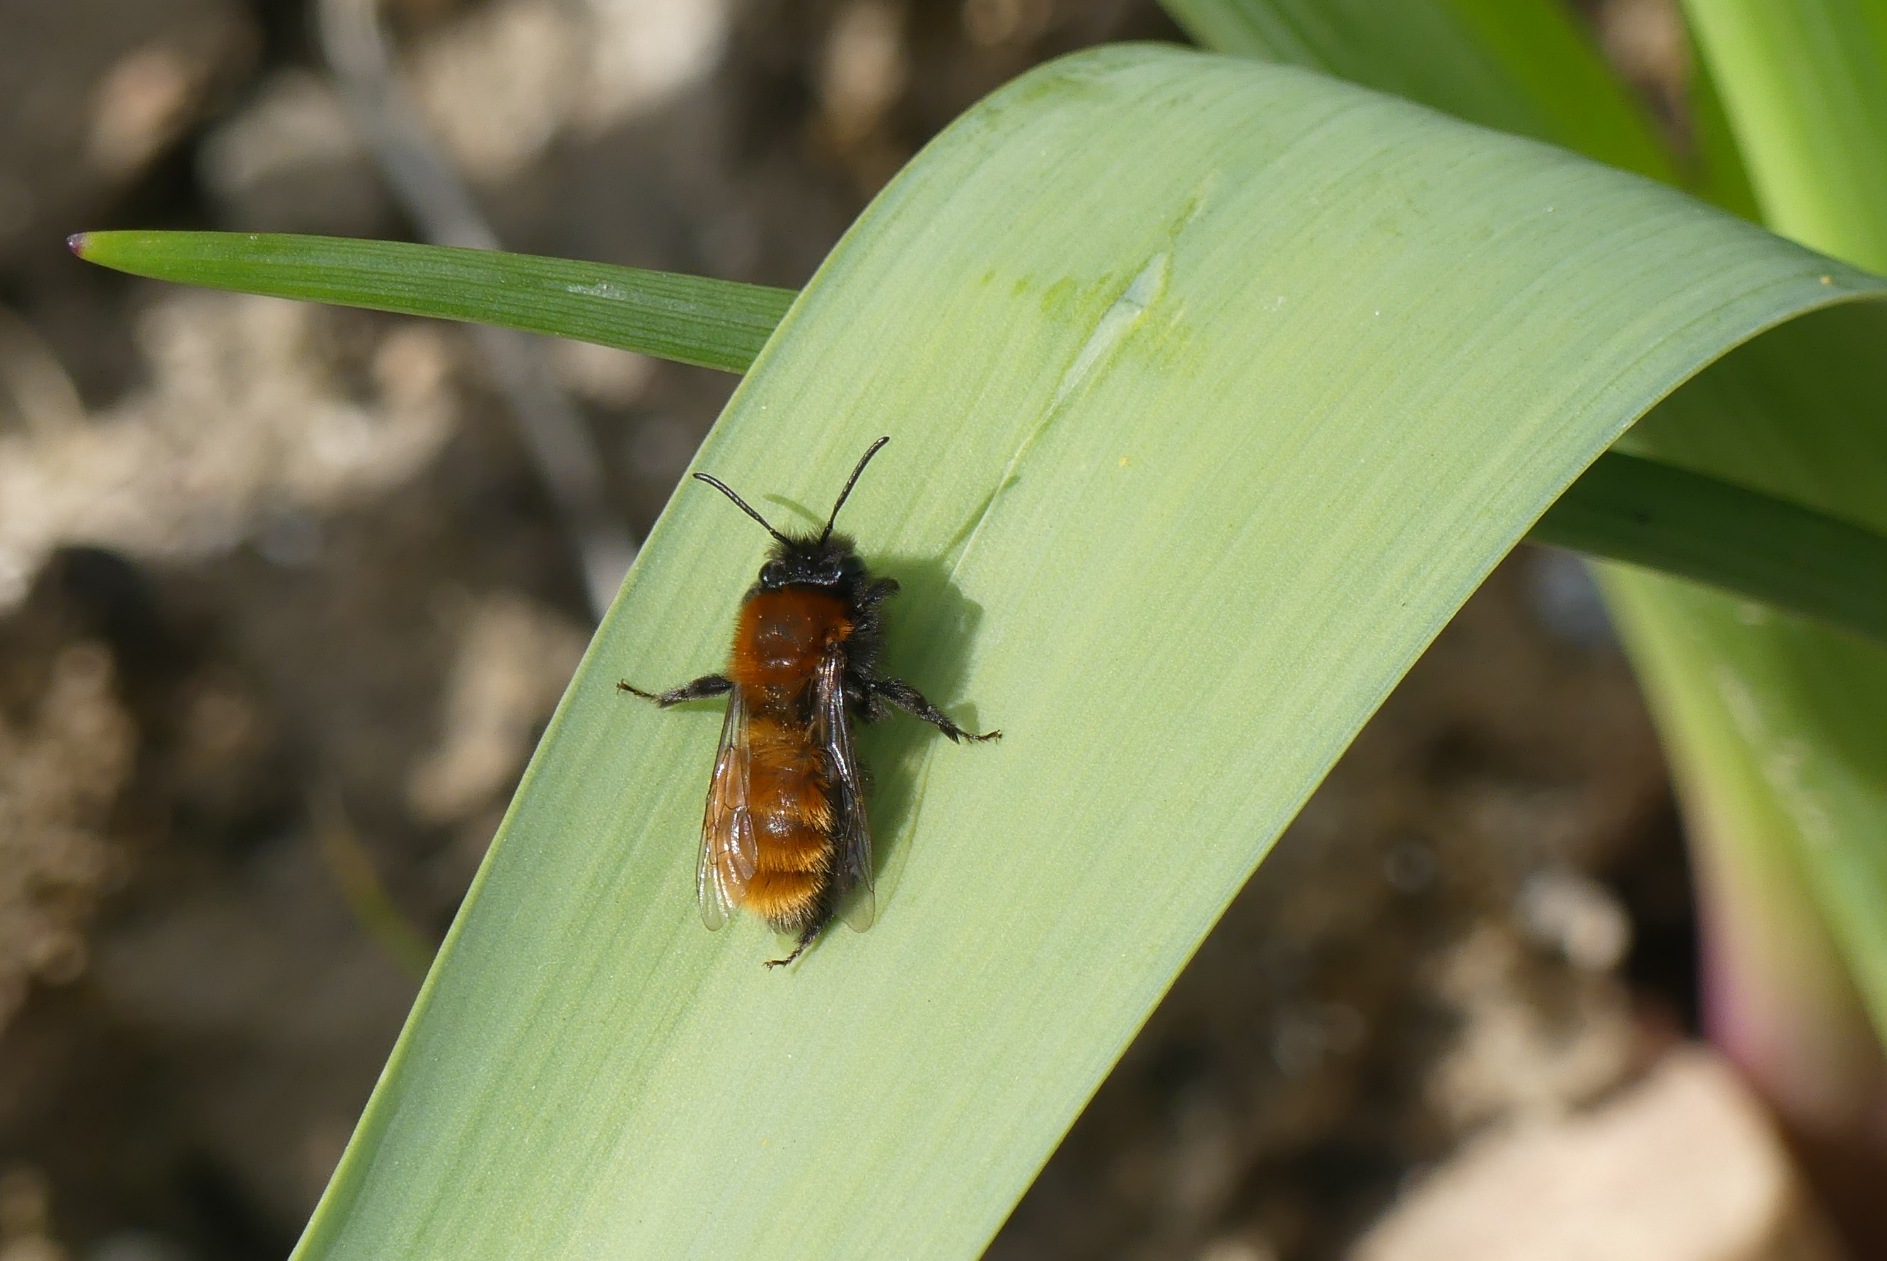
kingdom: Animalia
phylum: Arthropoda
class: Insecta
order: Hymenoptera
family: Andrenidae
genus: Andrena
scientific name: Andrena fulva
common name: Rødpelset jordbi
